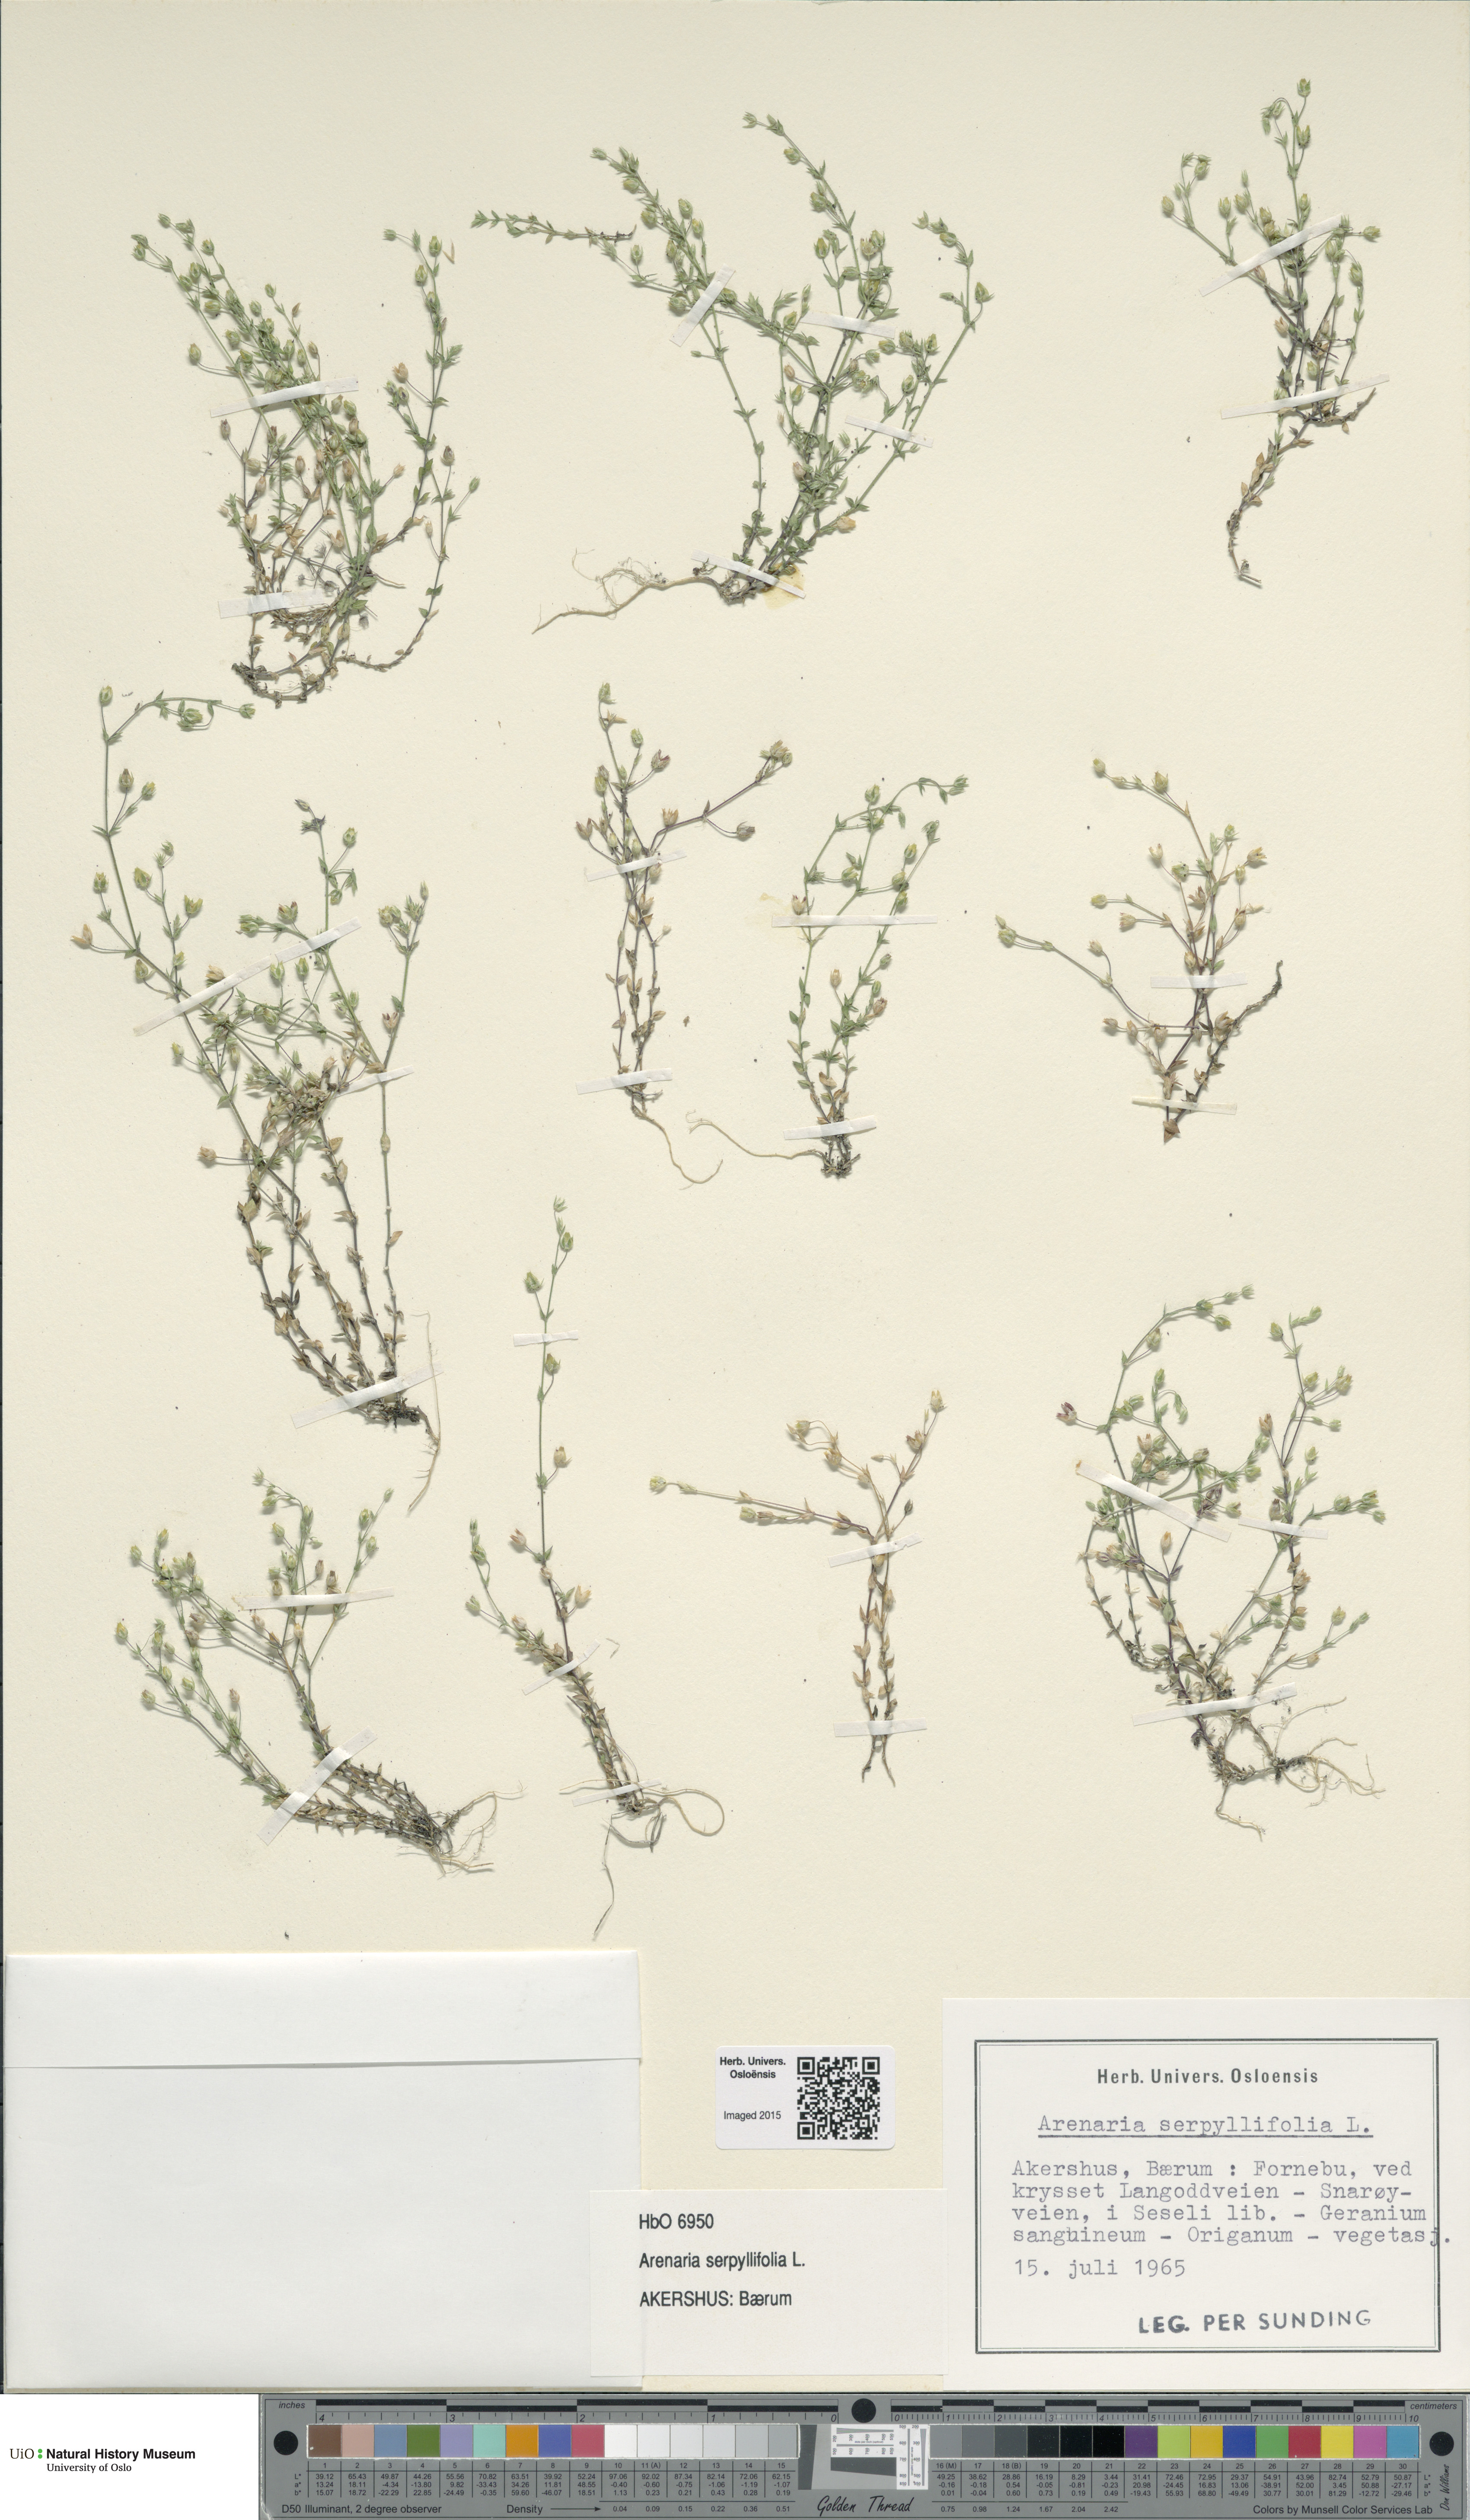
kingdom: Plantae
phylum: Tracheophyta
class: Magnoliopsida
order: Caryophyllales
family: Caryophyllaceae
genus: Arenaria
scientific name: Arenaria serpyllifolia
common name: Thyme-leaved sandwort
